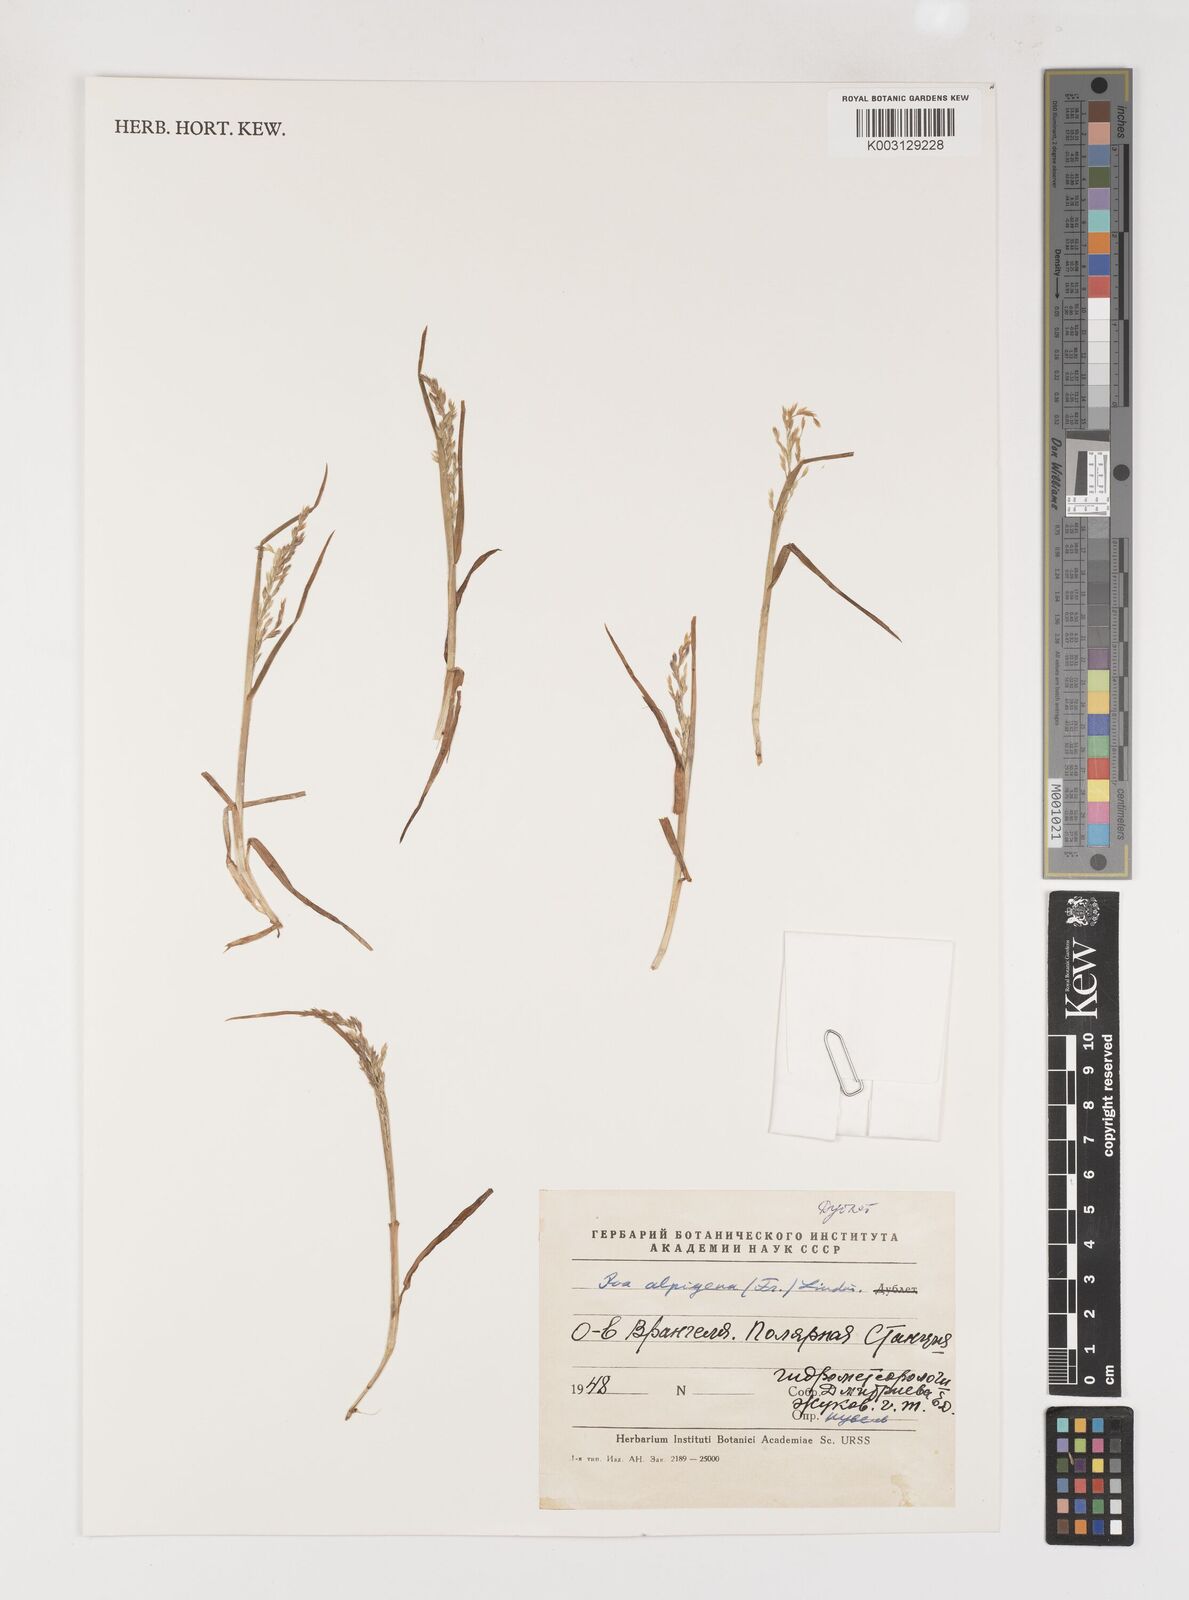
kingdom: Plantae
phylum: Tracheophyta
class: Liliopsida
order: Poales
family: Poaceae
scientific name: Poaceae
